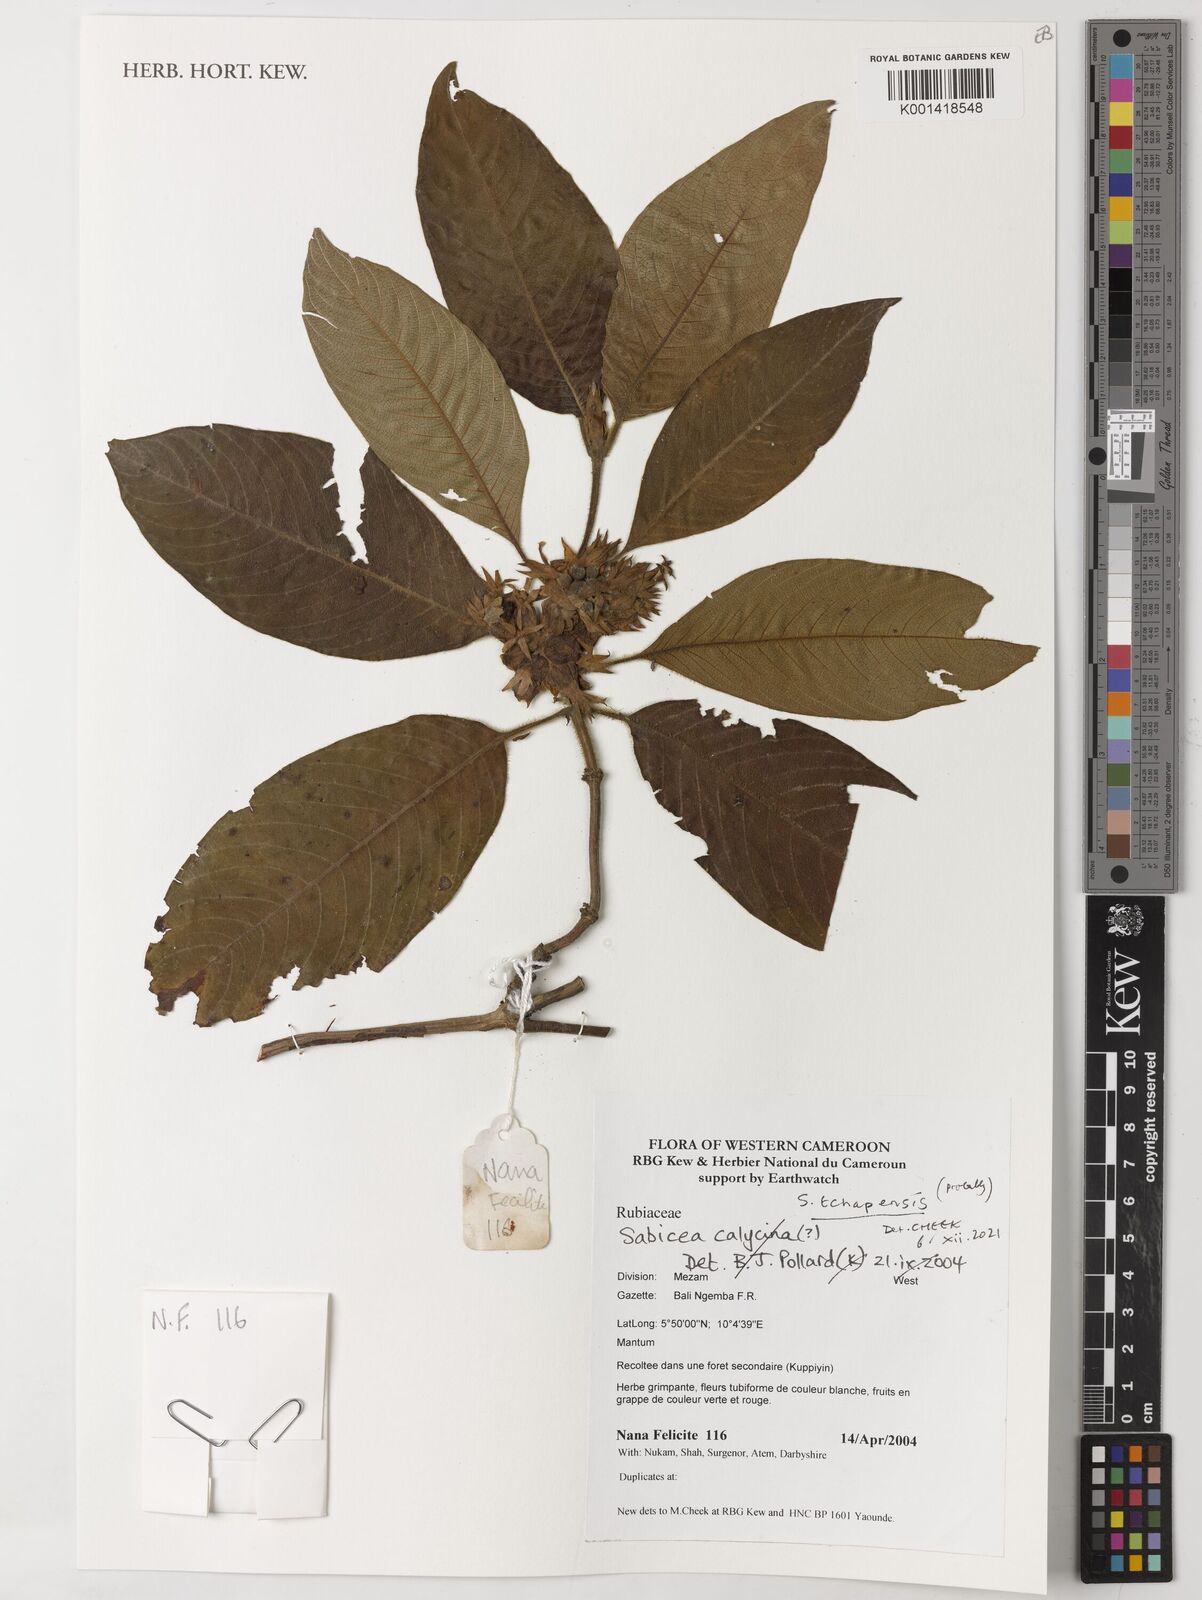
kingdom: Plantae
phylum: Tracheophyta
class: Magnoliopsida
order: Gentianales
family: Rubiaceae
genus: Sabicea
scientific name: Sabicea tchapensis
